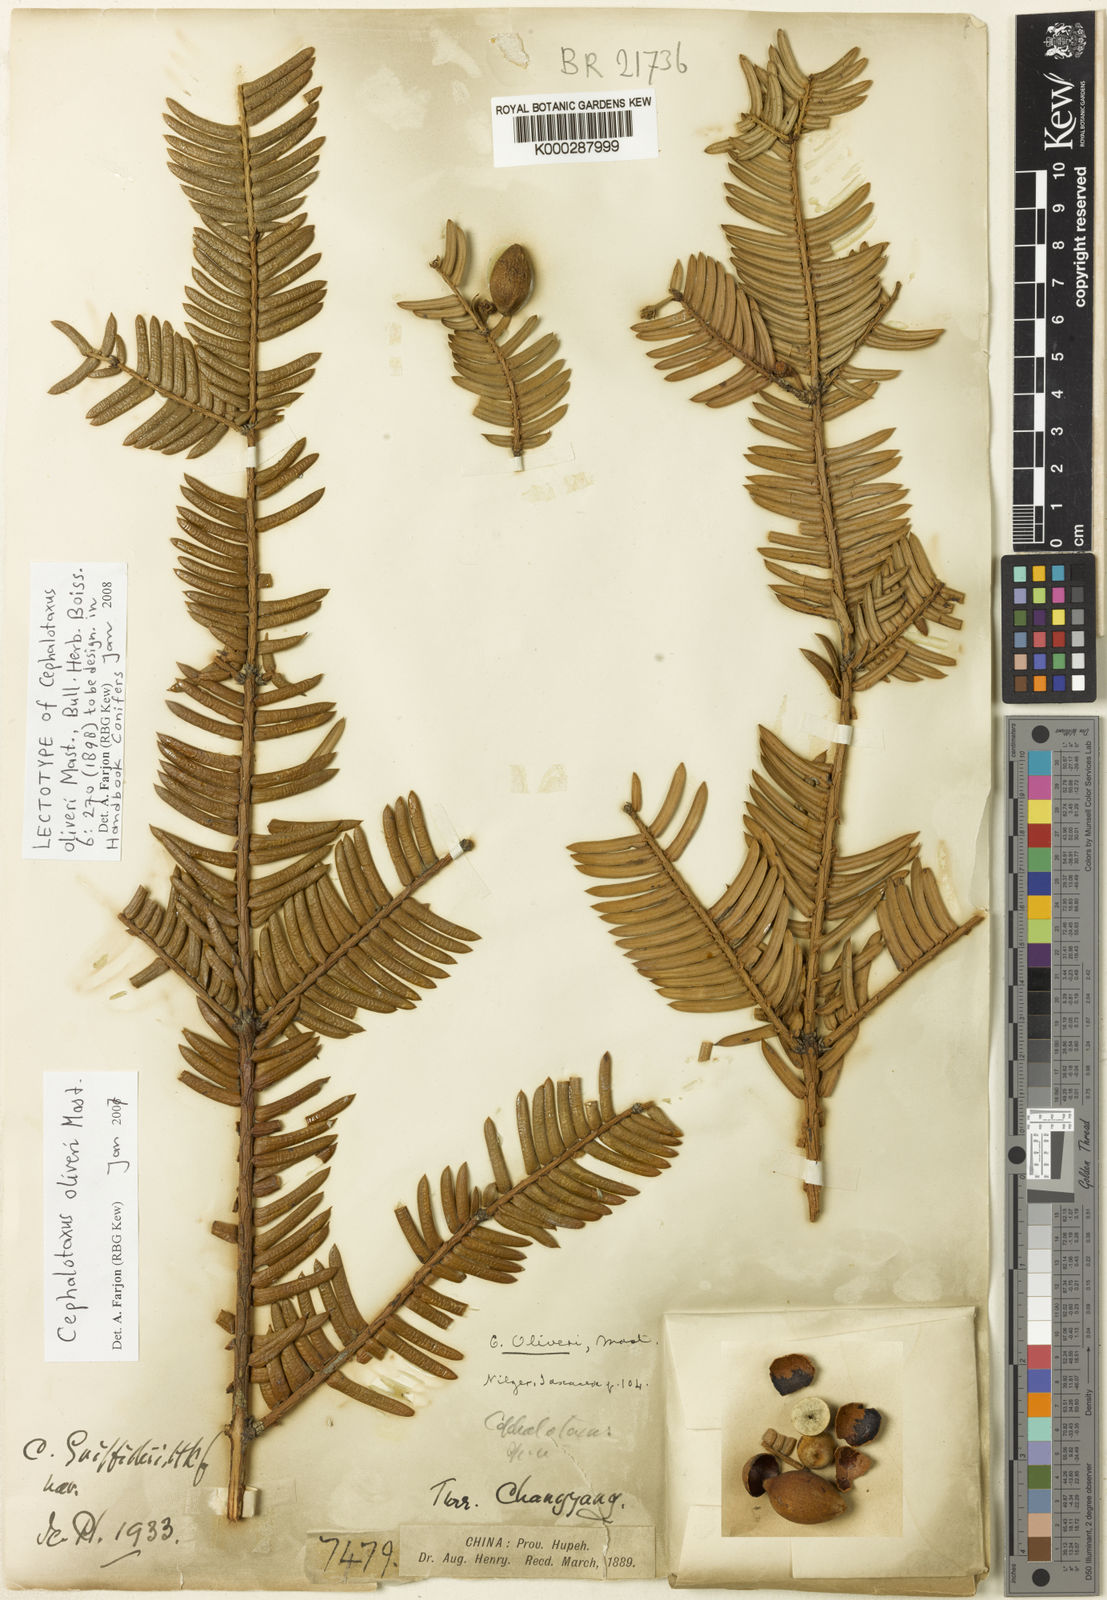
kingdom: Plantae
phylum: Tracheophyta
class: Pinopsida
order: Pinales
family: Cephalotaxaceae
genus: Cephalotaxus
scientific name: Cephalotaxus oliveri
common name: Oliver's plum yew
